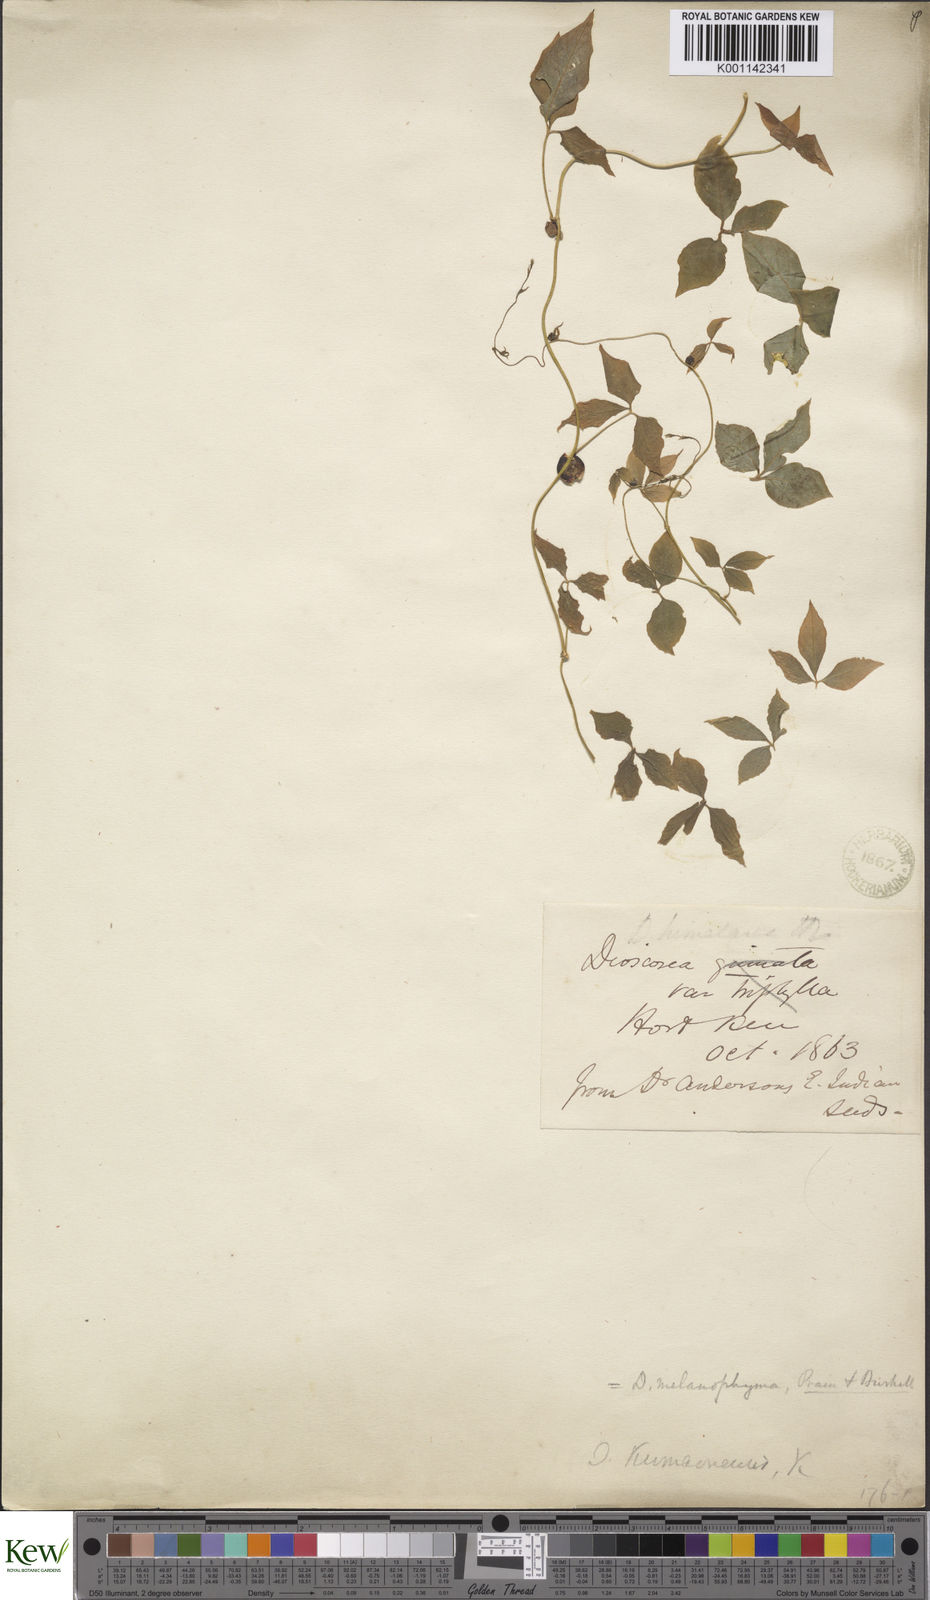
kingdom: Plantae
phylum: Tracheophyta
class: Liliopsida
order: Dioscoreales
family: Dioscoreaceae
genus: Dioscorea
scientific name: Dioscorea melanophyma
